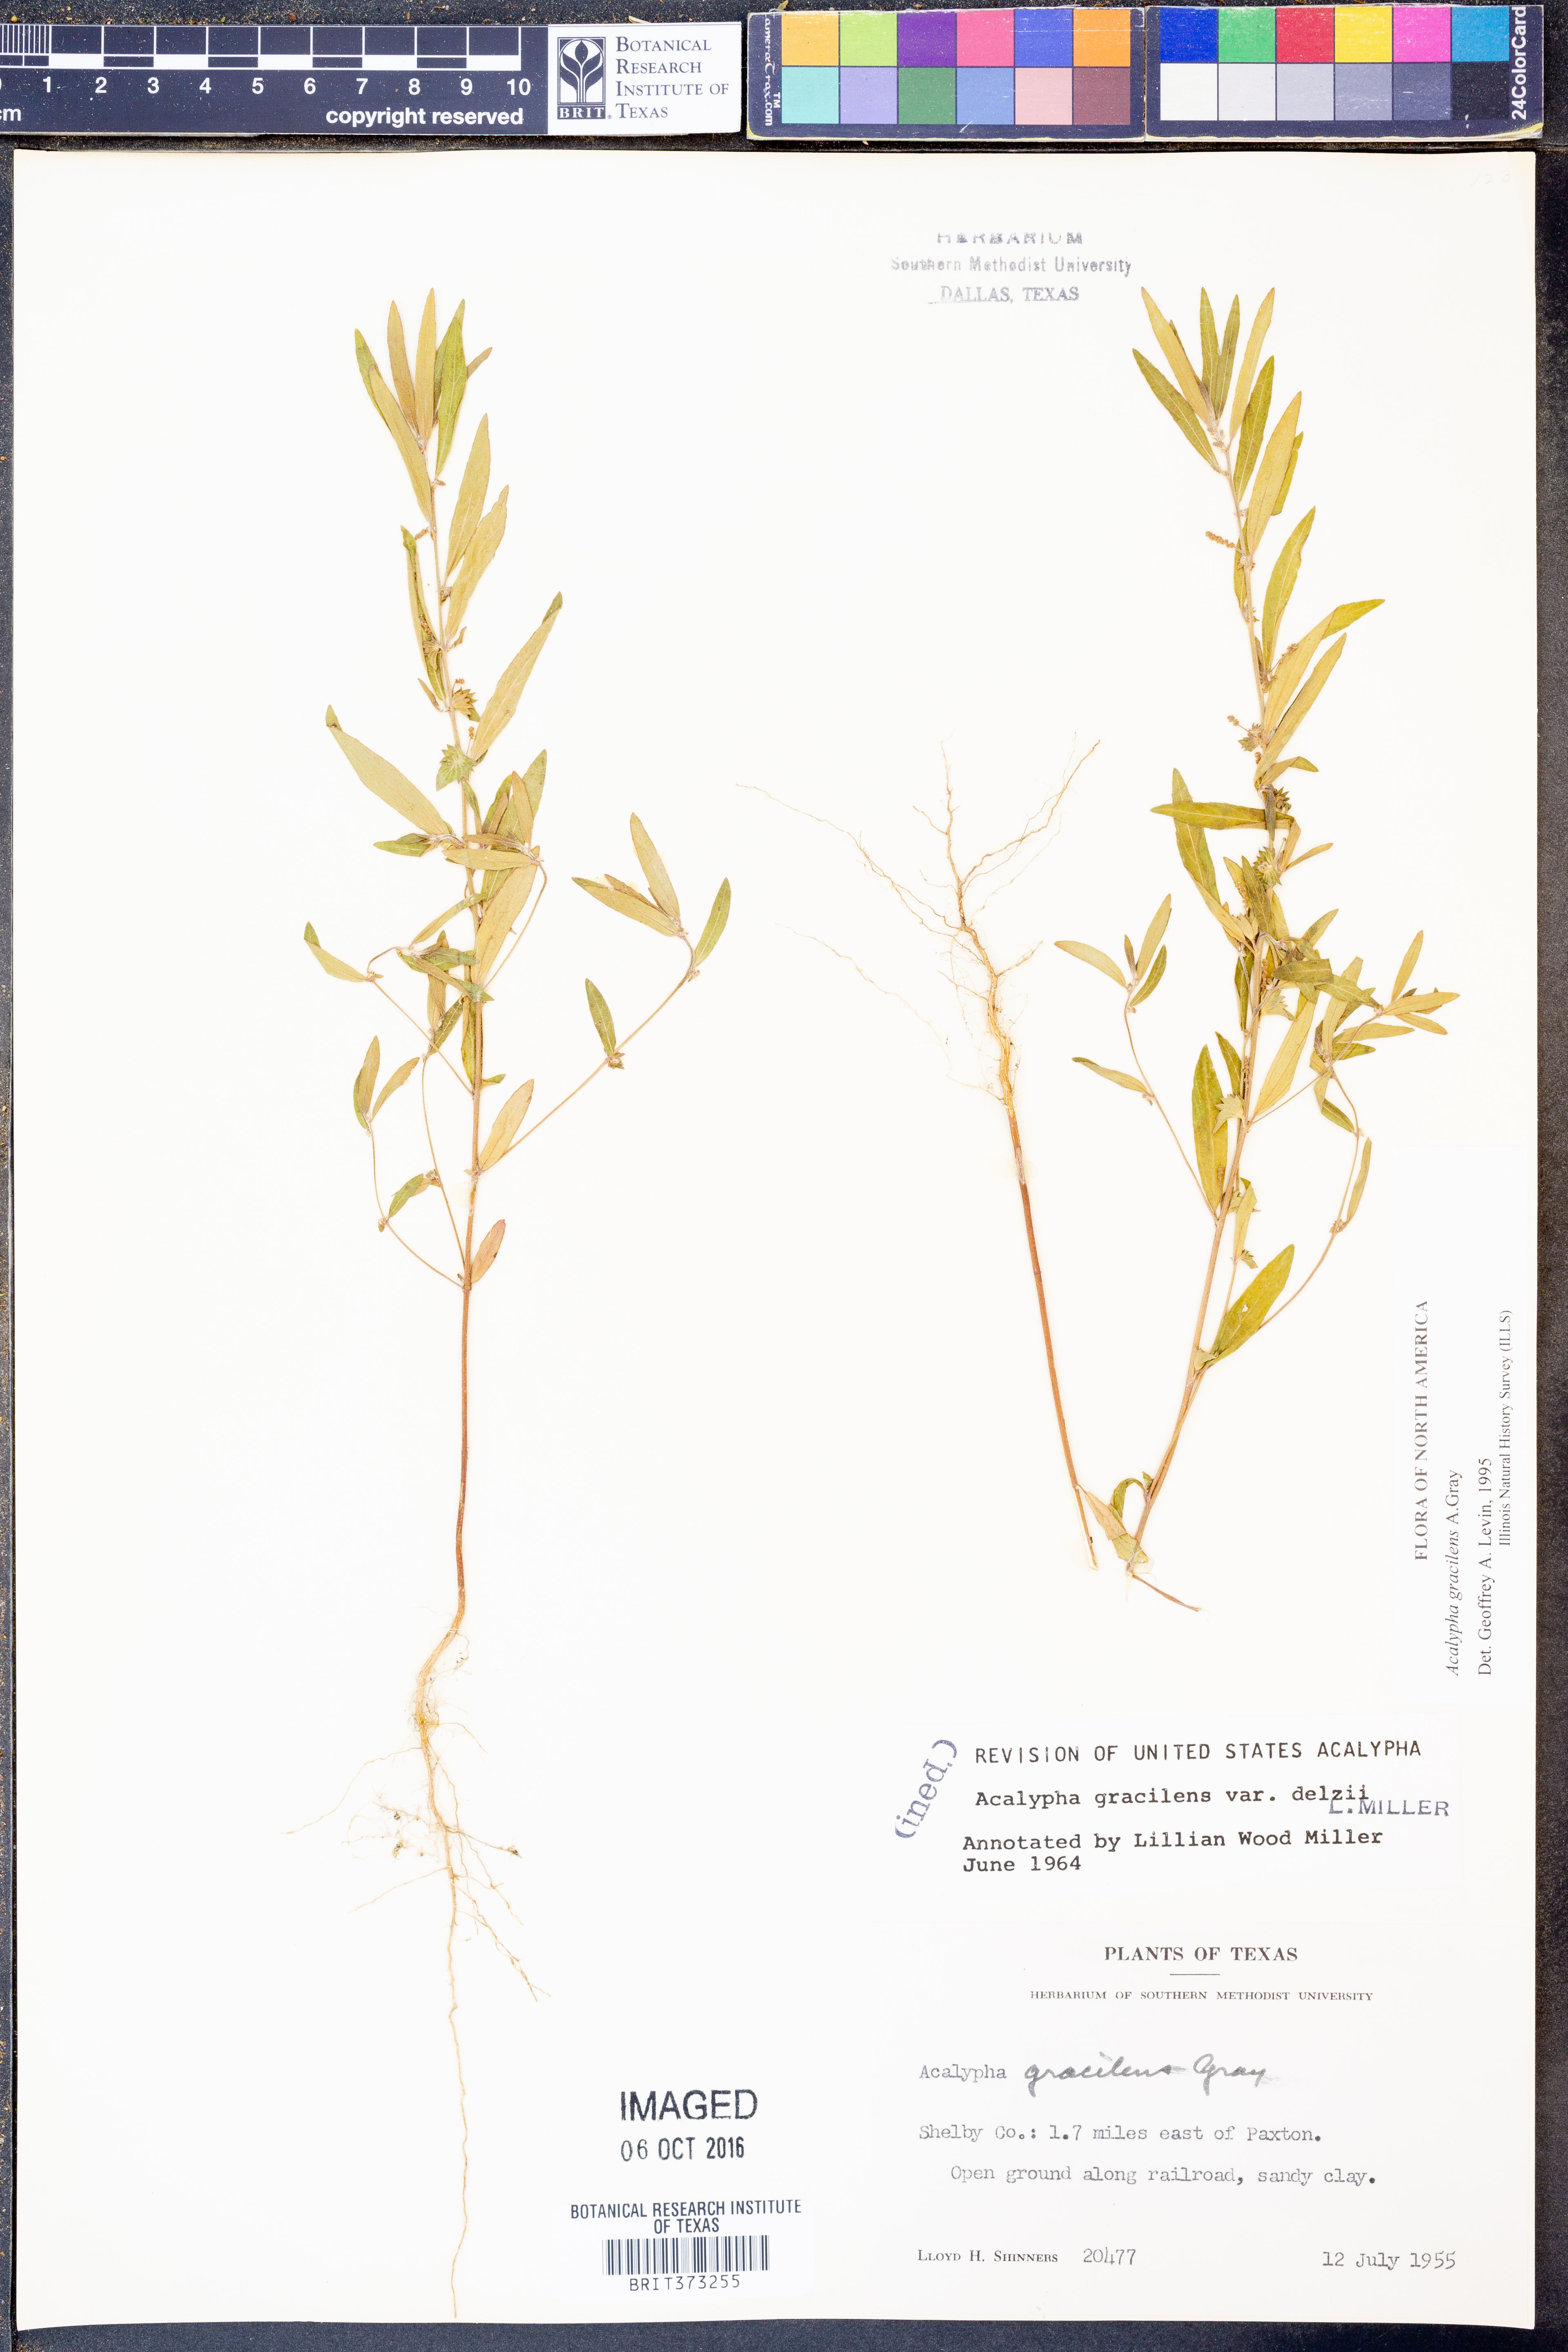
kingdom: Plantae
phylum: Tracheophyta
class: Magnoliopsida
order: Malpighiales
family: Euphorbiaceae
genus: Acalypha
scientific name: Acalypha gracilens
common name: Slender three-seeded mercury
